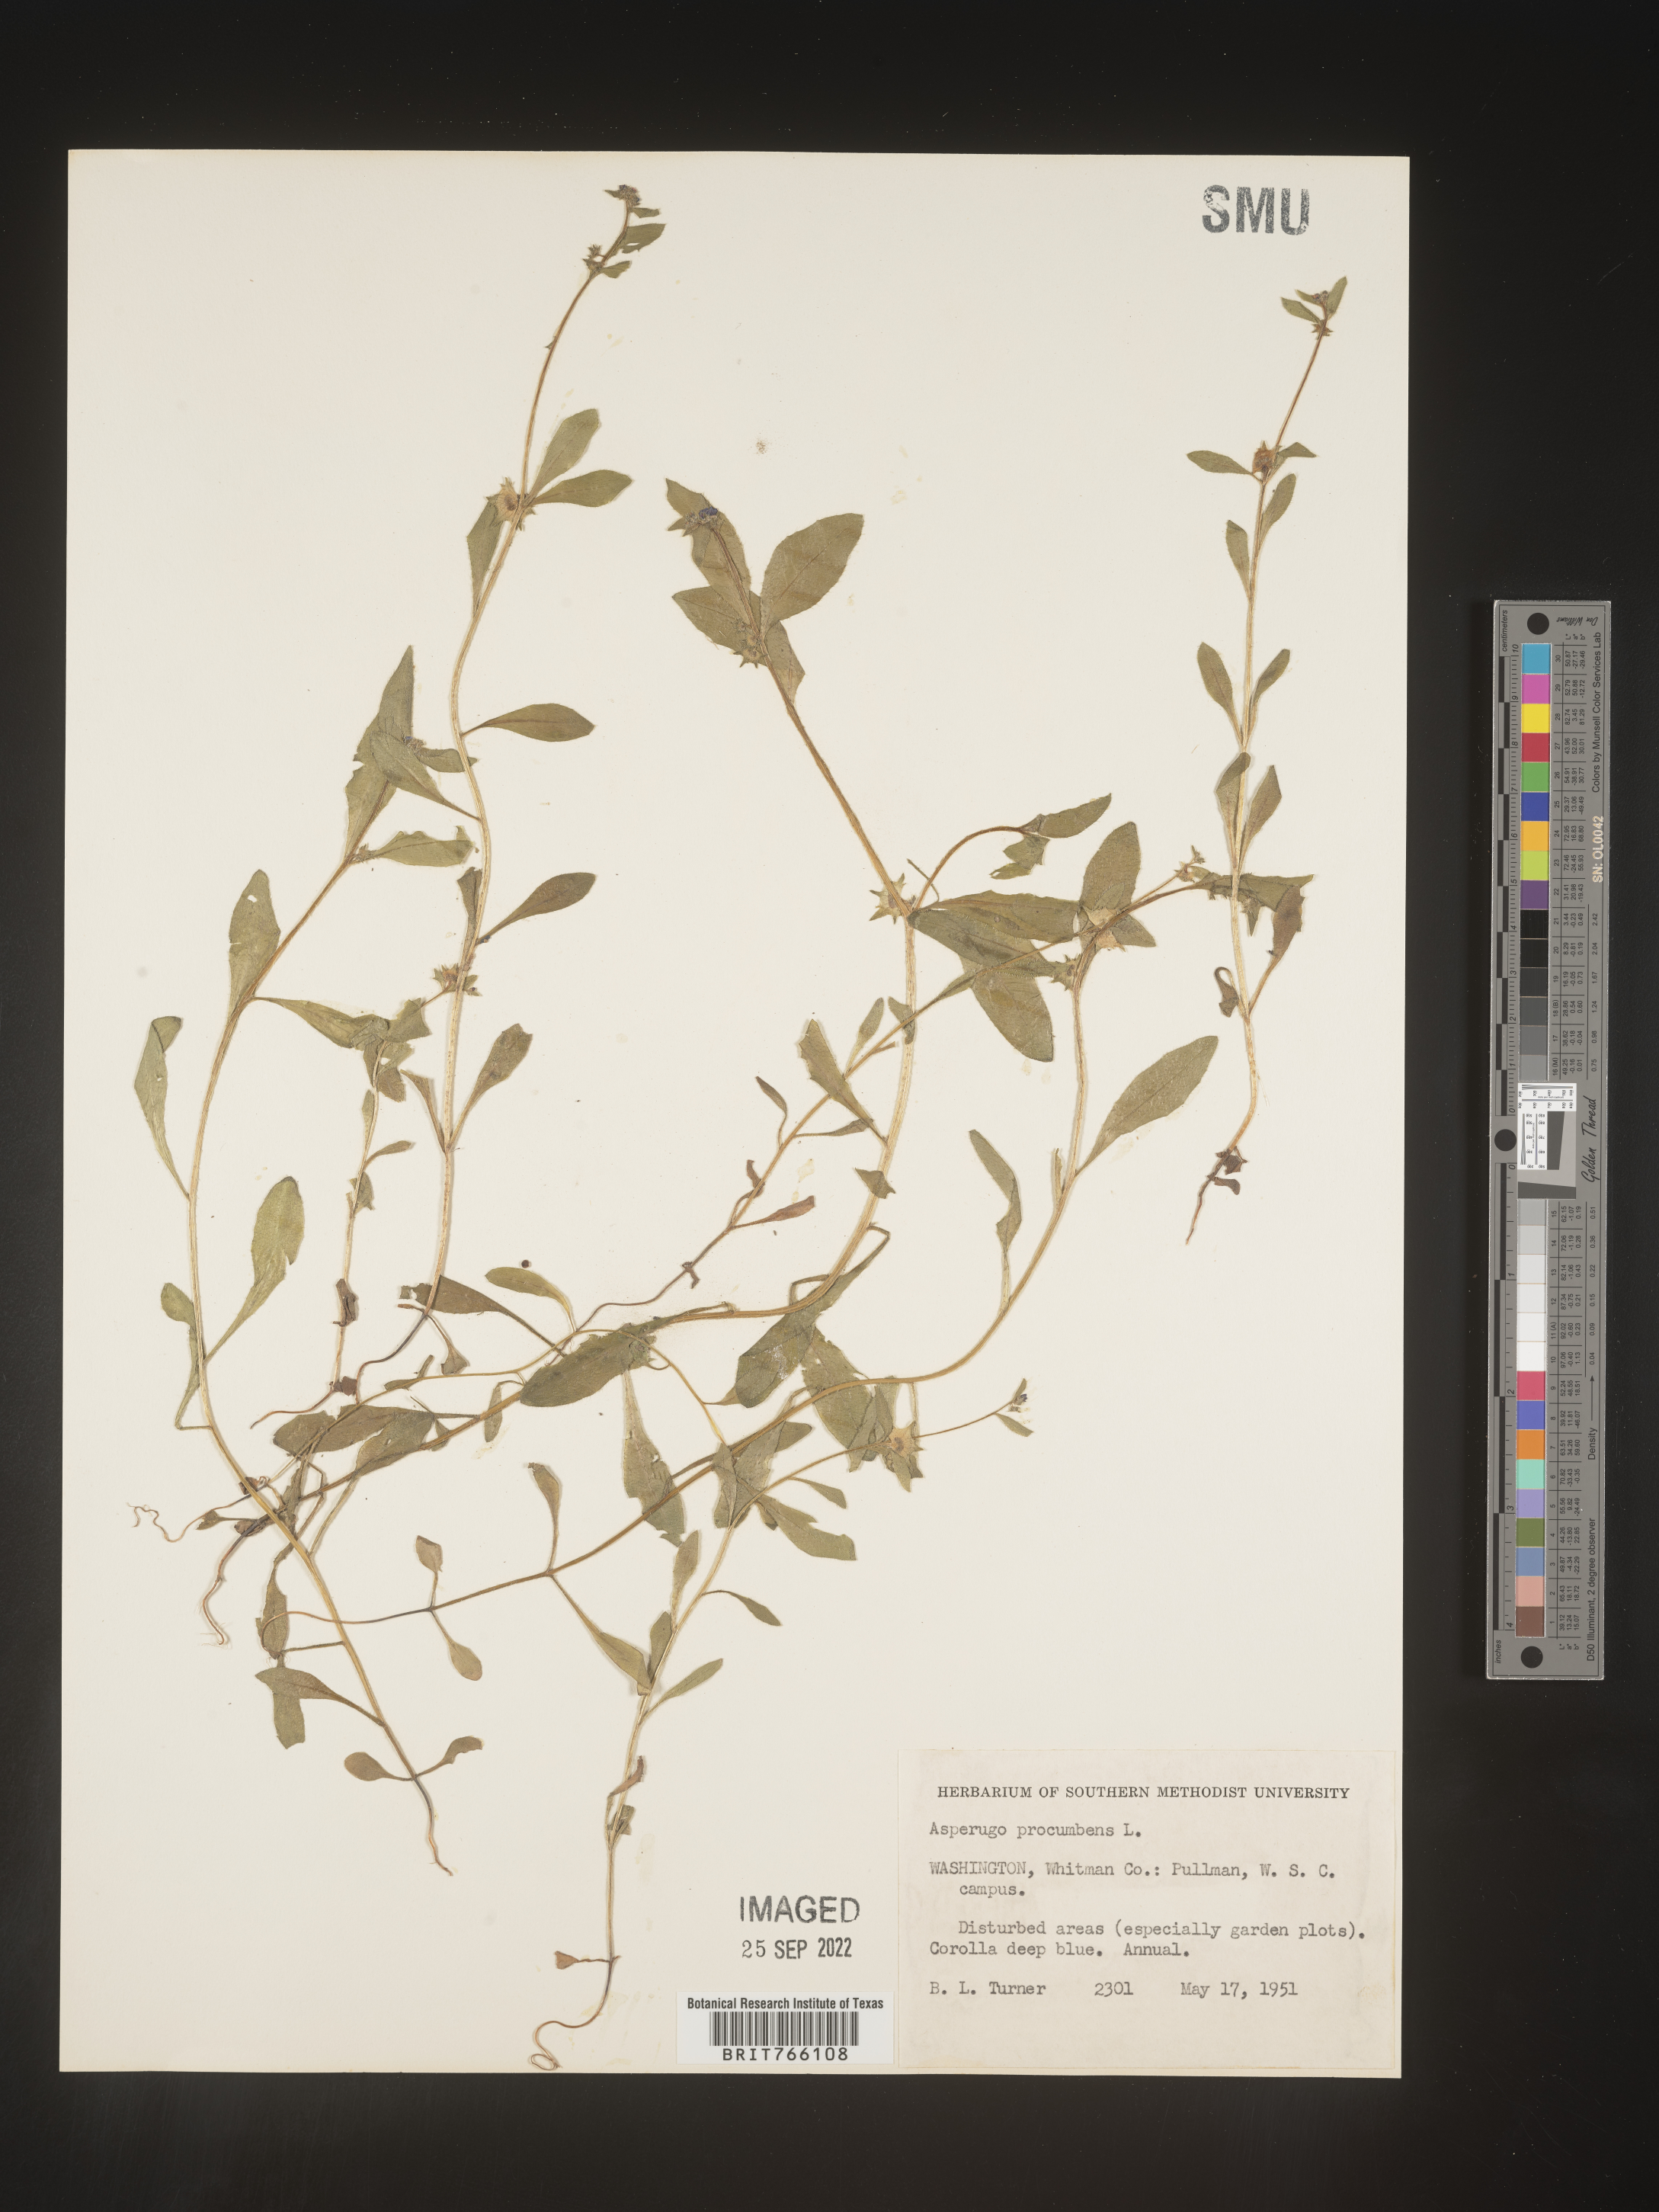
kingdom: Plantae
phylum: Tracheophyta
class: Magnoliopsida
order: Boraginales
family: Boraginaceae
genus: Asperugo
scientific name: Asperugo
